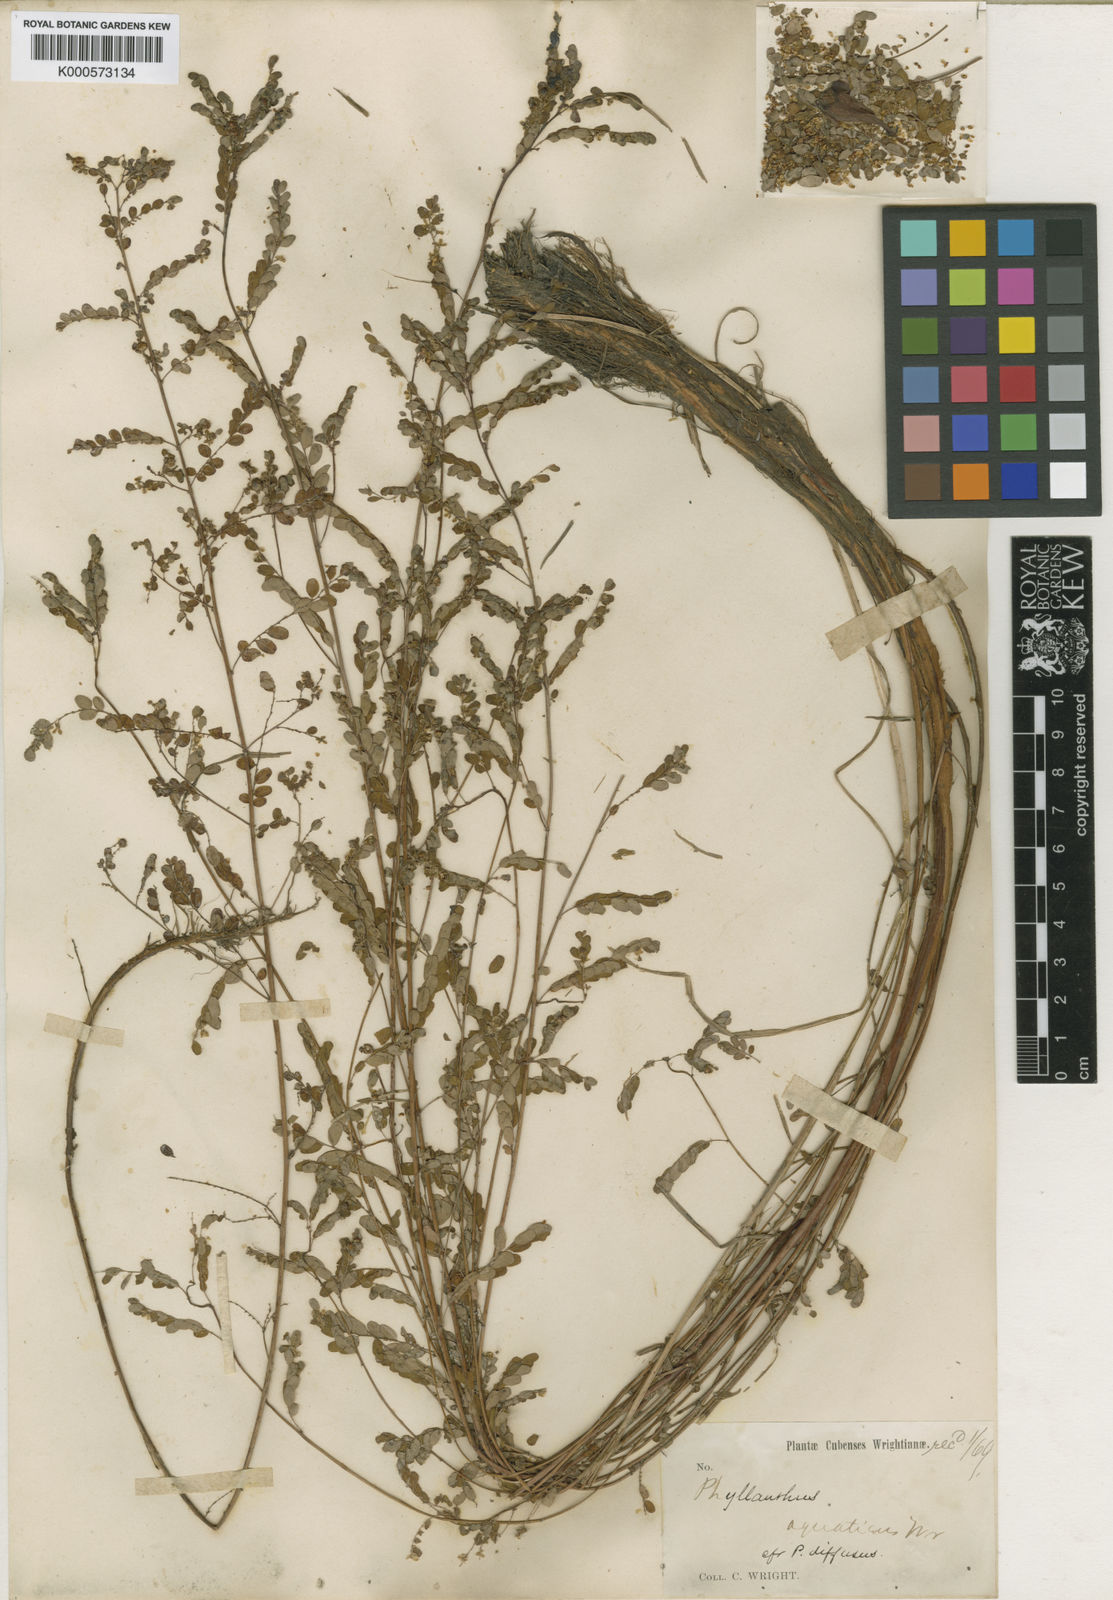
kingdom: Plantae
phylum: Tracheophyta
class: Magnoliopsida
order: Malpighiales
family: Phyllanthaceae
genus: Phyllanthus
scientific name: Phyllanthus stipulatus
